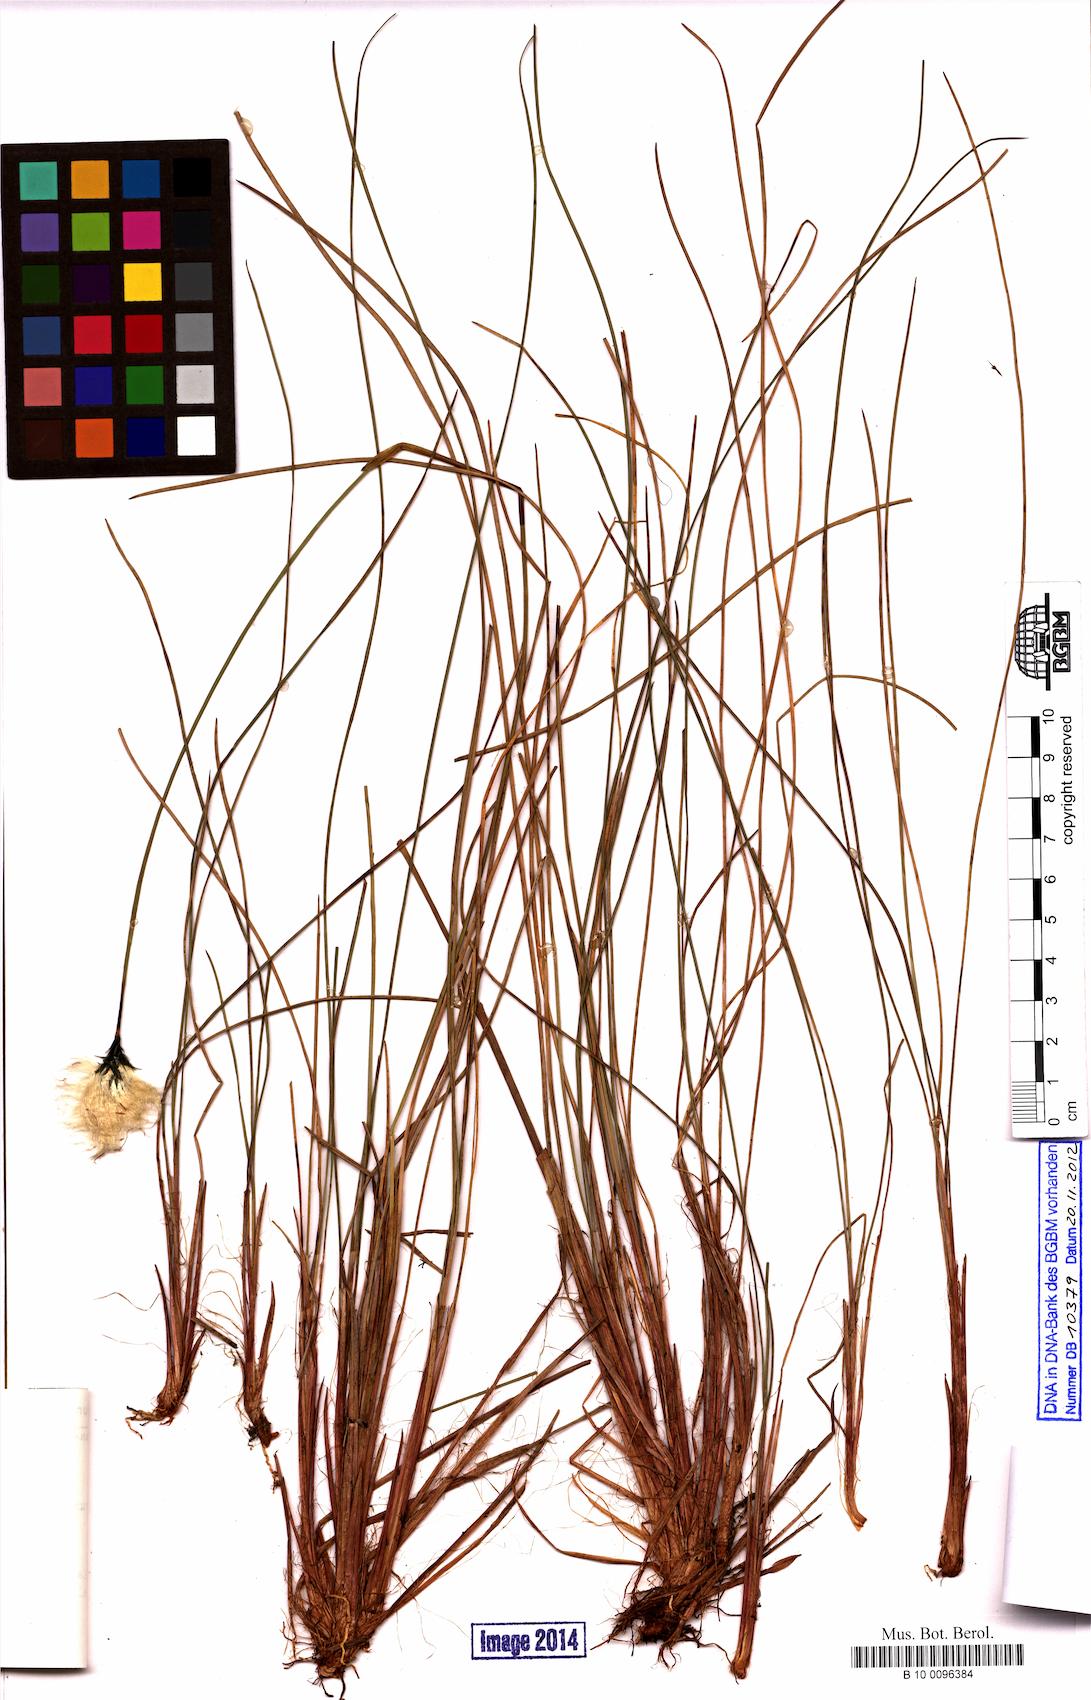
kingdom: Plantae
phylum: Tracheophyta
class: Liliopsida
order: Poales
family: Cyperaceae
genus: Eriophorum
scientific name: Eriophorum vaginatum
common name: Hare's-tail cottongrass
